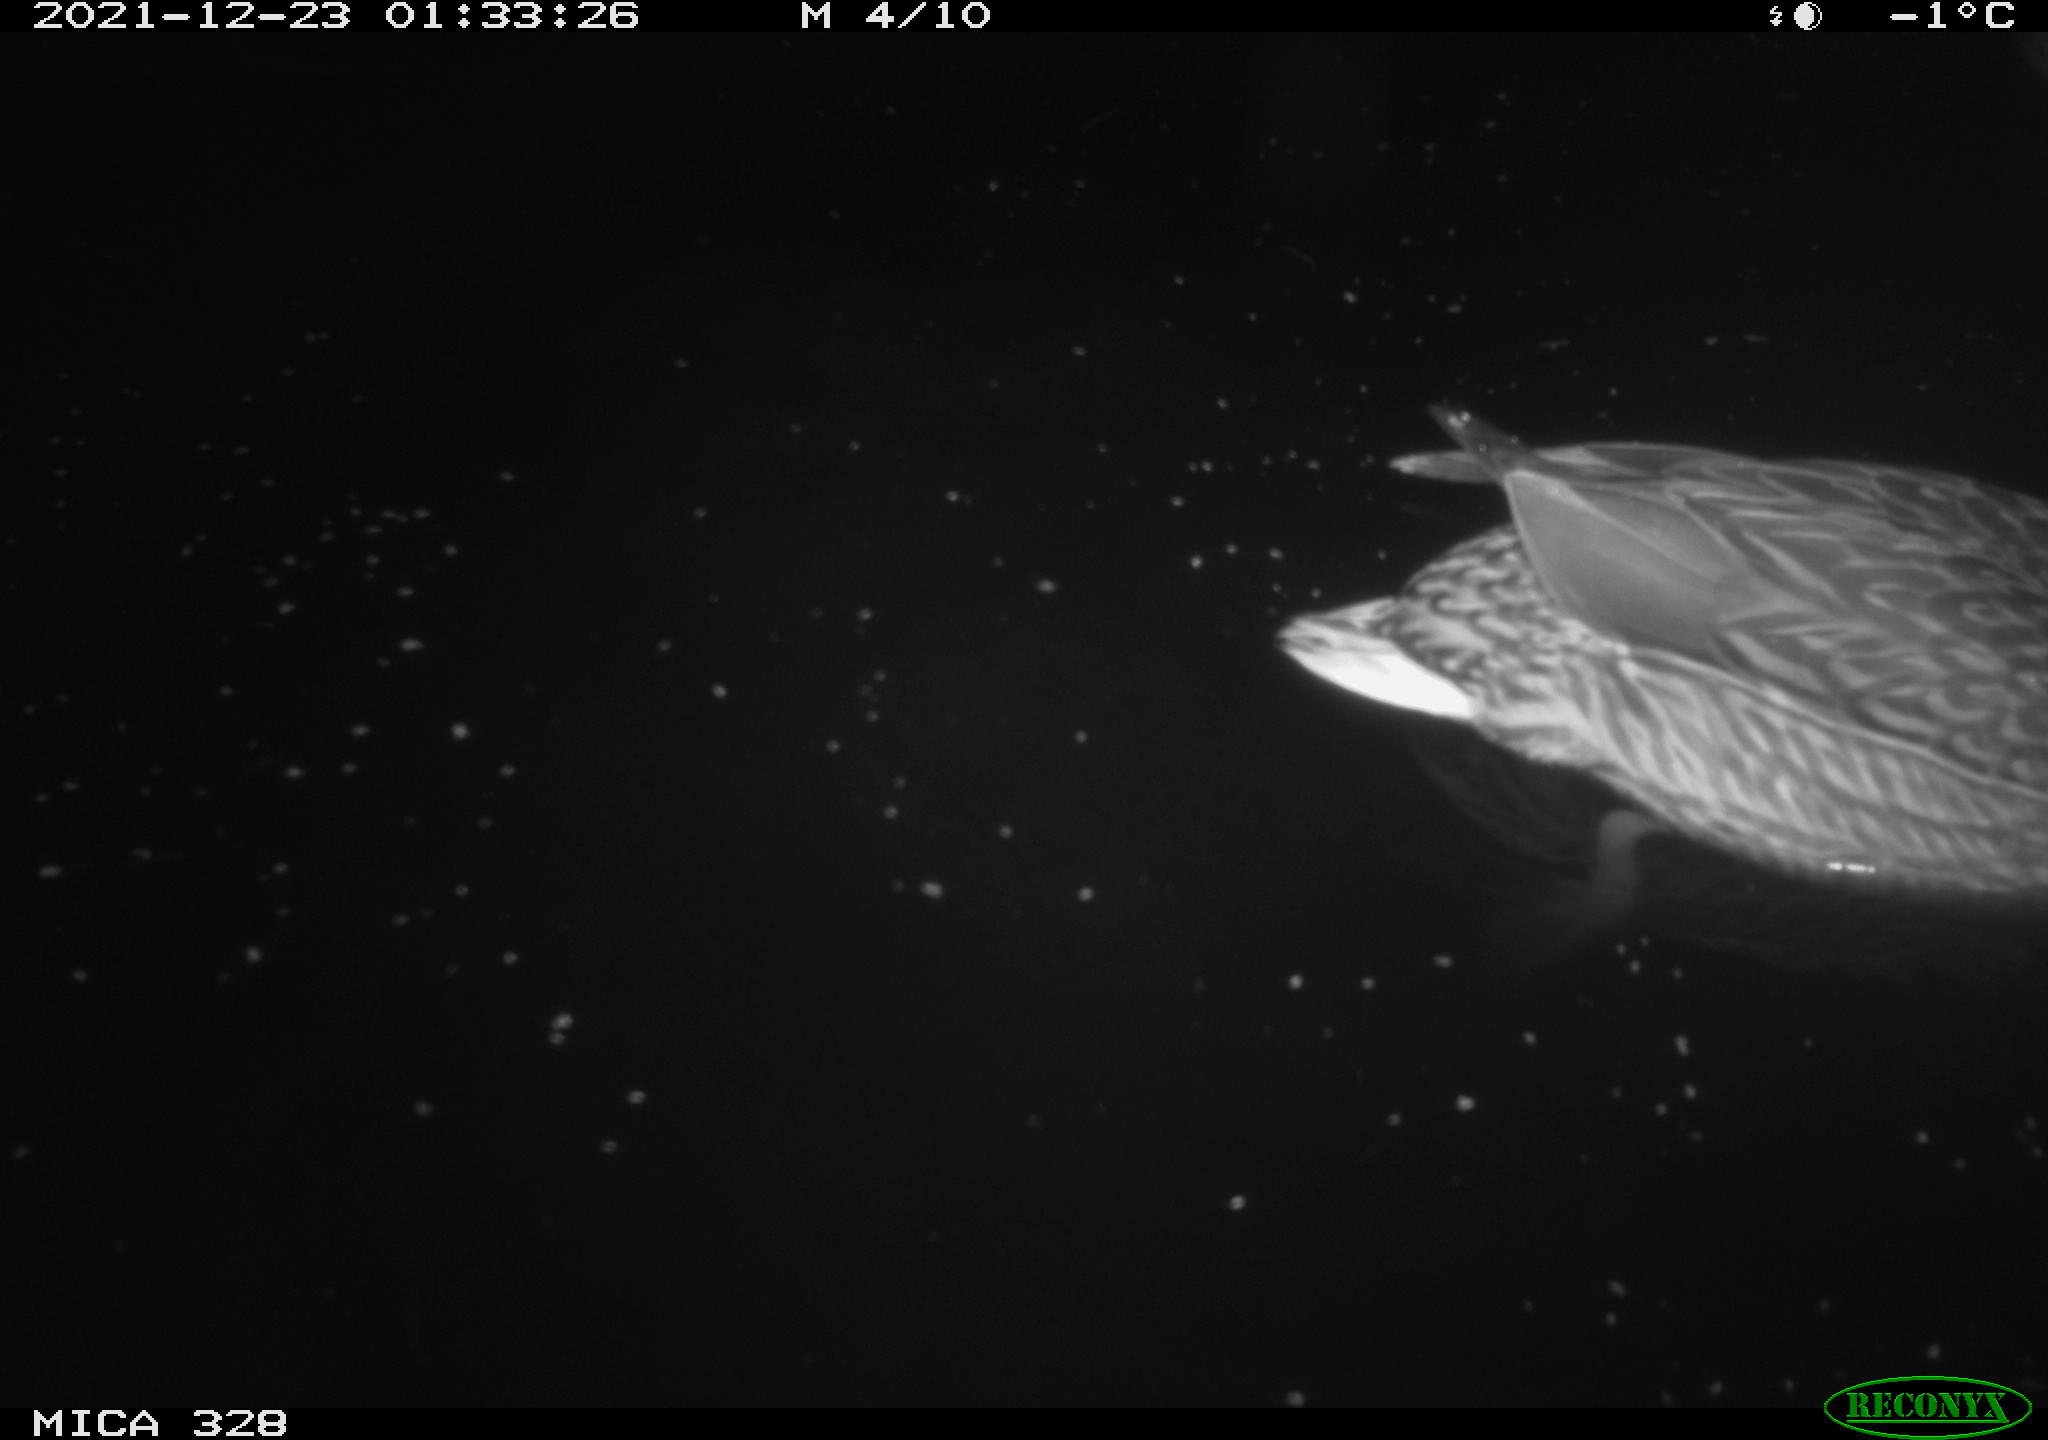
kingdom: Animalia
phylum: Chordata
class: Aves
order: Anseriformes
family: Anatidae
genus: Anas
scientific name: Anas platyrhynchos
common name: Mallard
